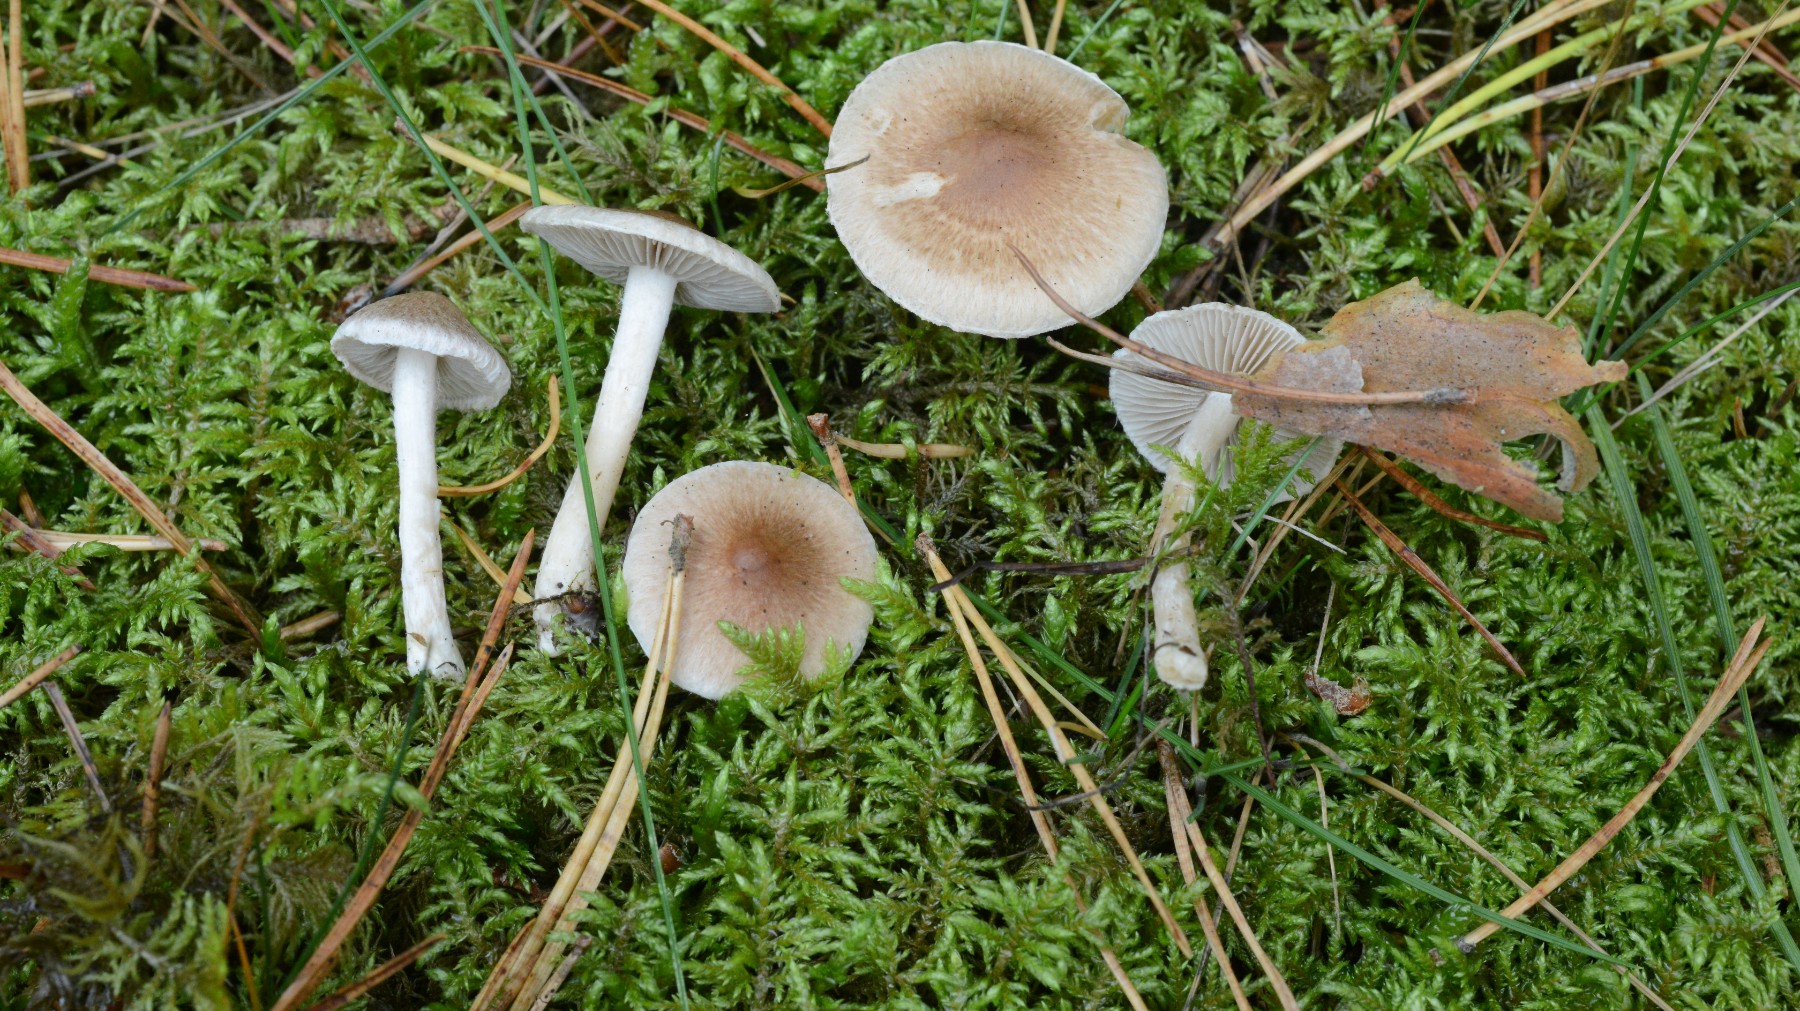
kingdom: Fungi
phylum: Basidiomycota
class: Agaricomycetes
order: Agaricales
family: Inocybaceae
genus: Inocybe
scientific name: Inocybe flocculosa
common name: fnugget trævlhat
